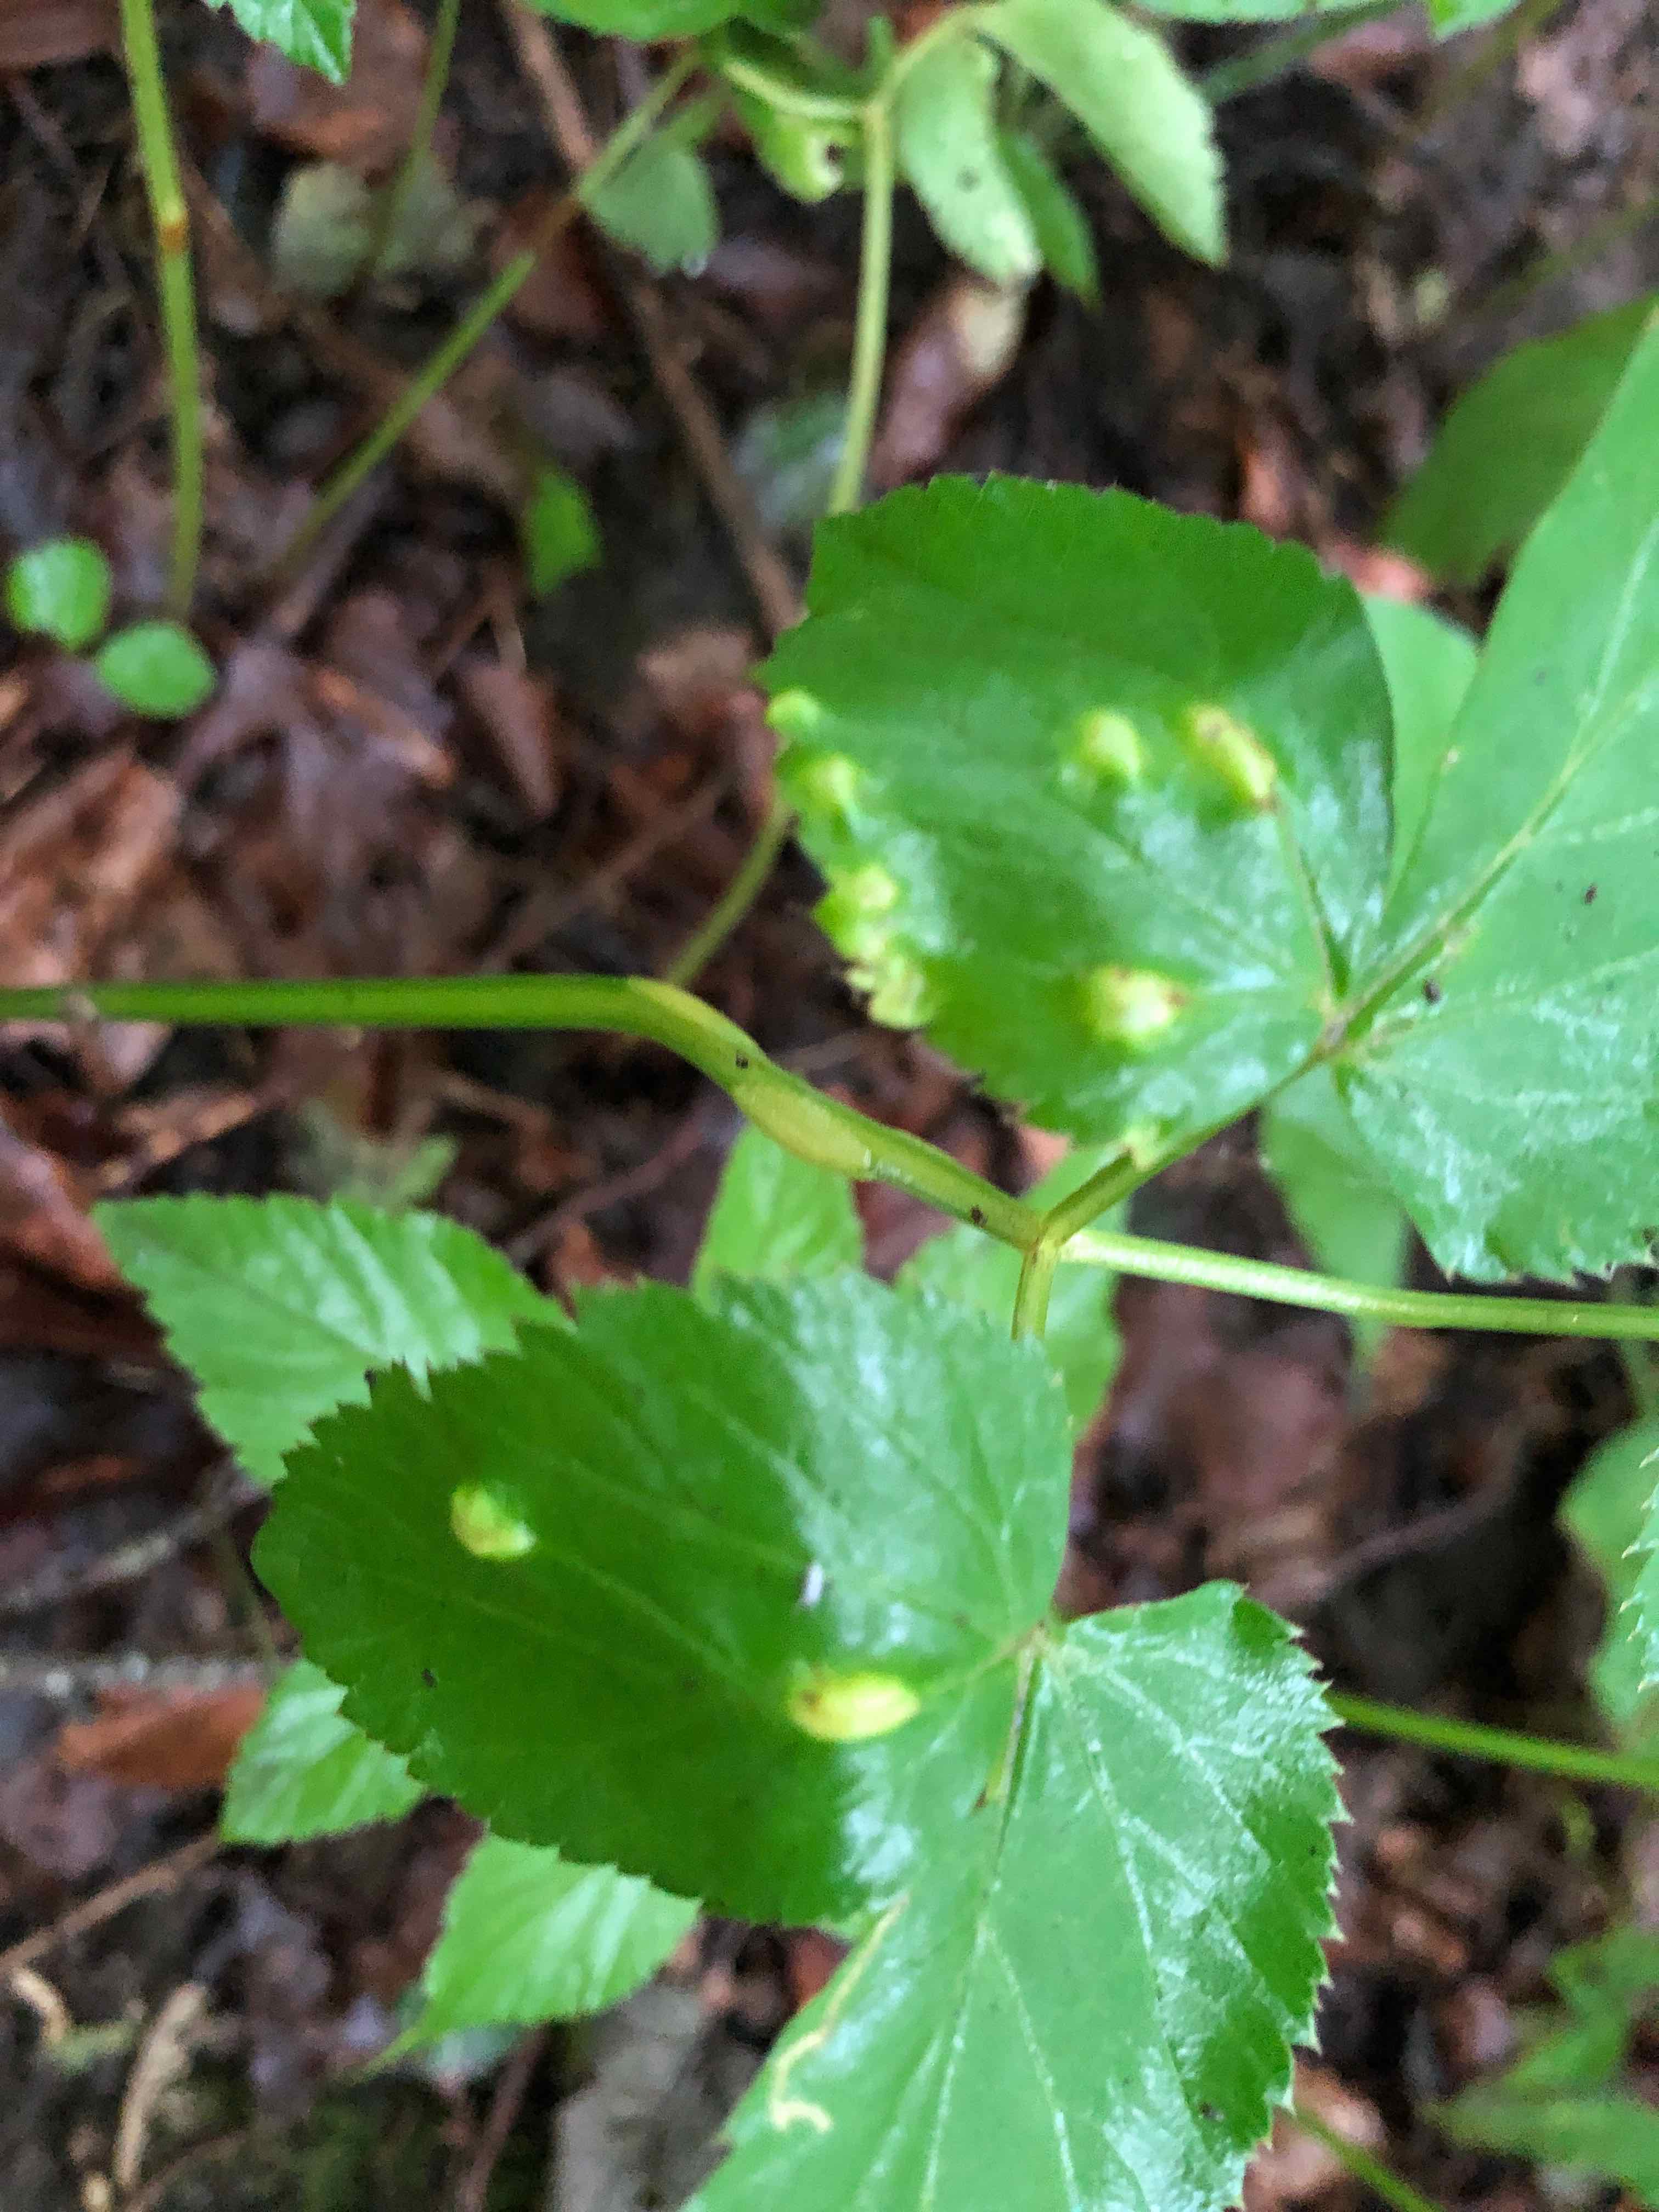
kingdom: Fungi
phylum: Ascomycota
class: Taphrinomycetes
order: Taphrinales
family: Taphrinaceae
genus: Protomyces
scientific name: Protomyces macrosporus
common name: skvalderkål-vablesæk
